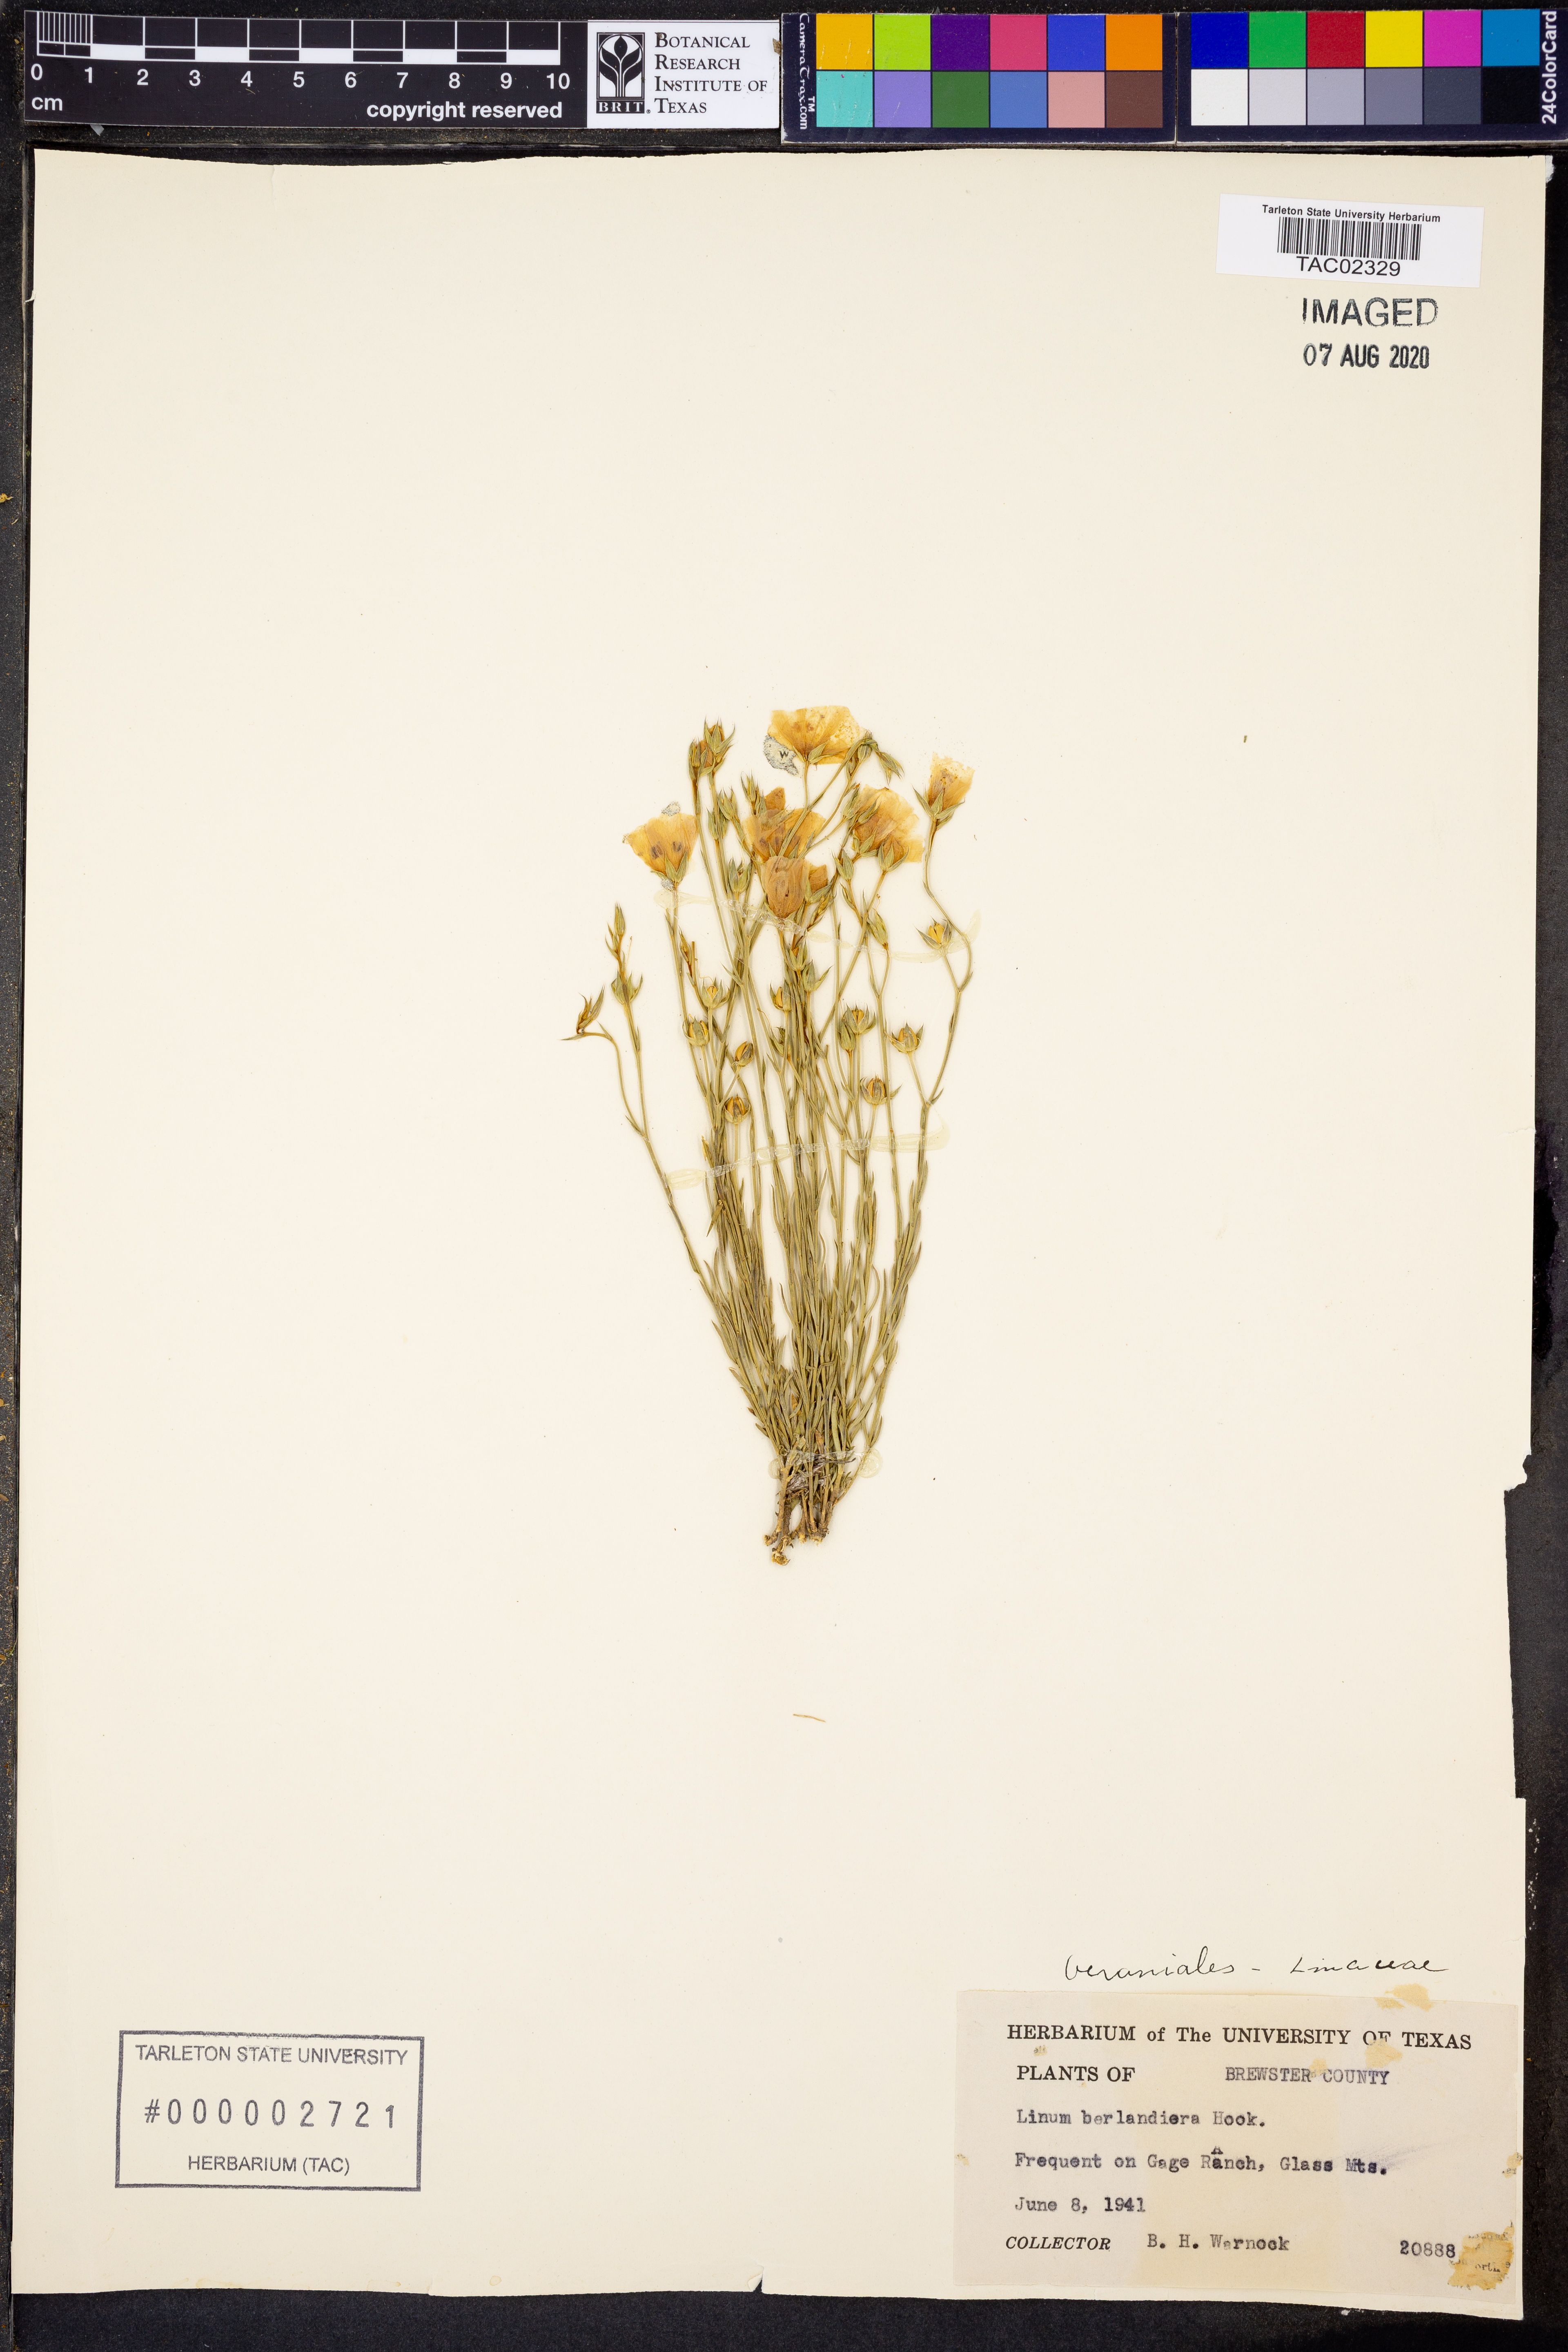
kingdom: Plantae
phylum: Tracheophyta
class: Magnoliopsida
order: Malpighiales
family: Linaceae
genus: Linum
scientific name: Linum berlandieri
